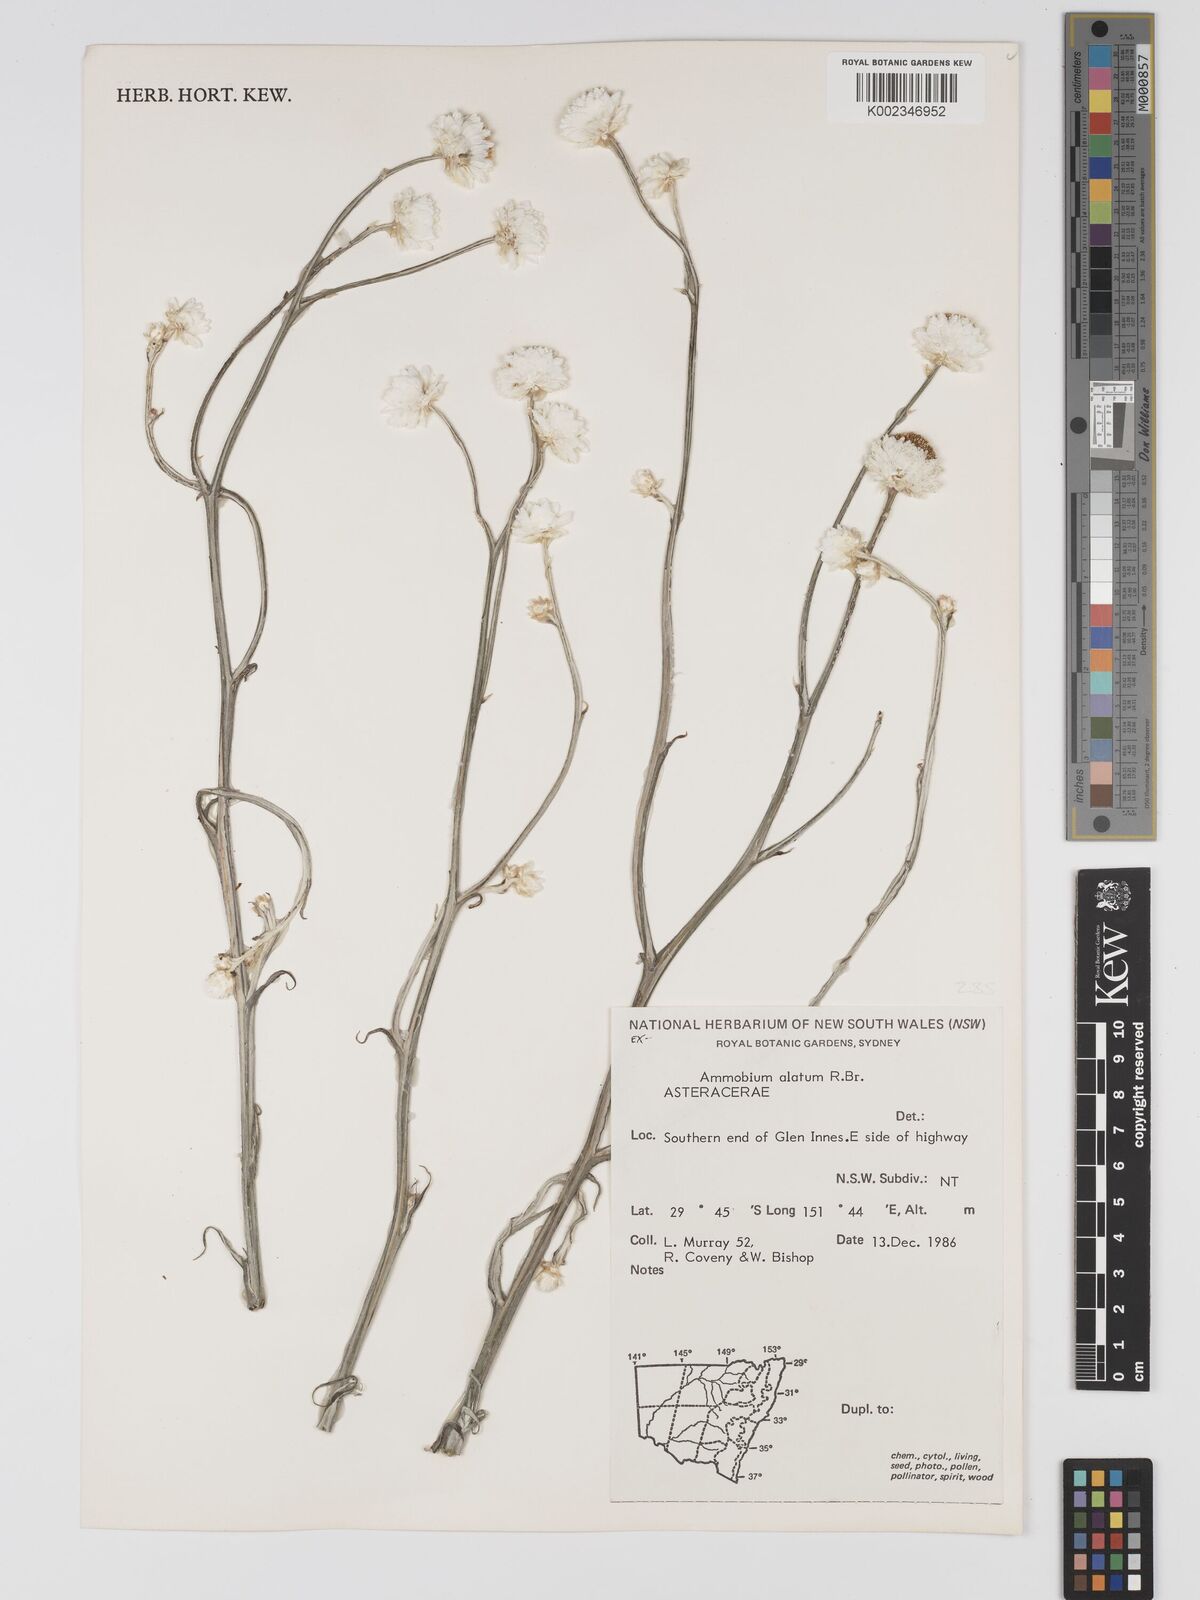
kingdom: Plantae
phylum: Tracheophyta
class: Magnoliopsida
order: Asterales
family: Asteraceae
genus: Ammobium
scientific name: Ammobium alatum
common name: Winged everlasting
